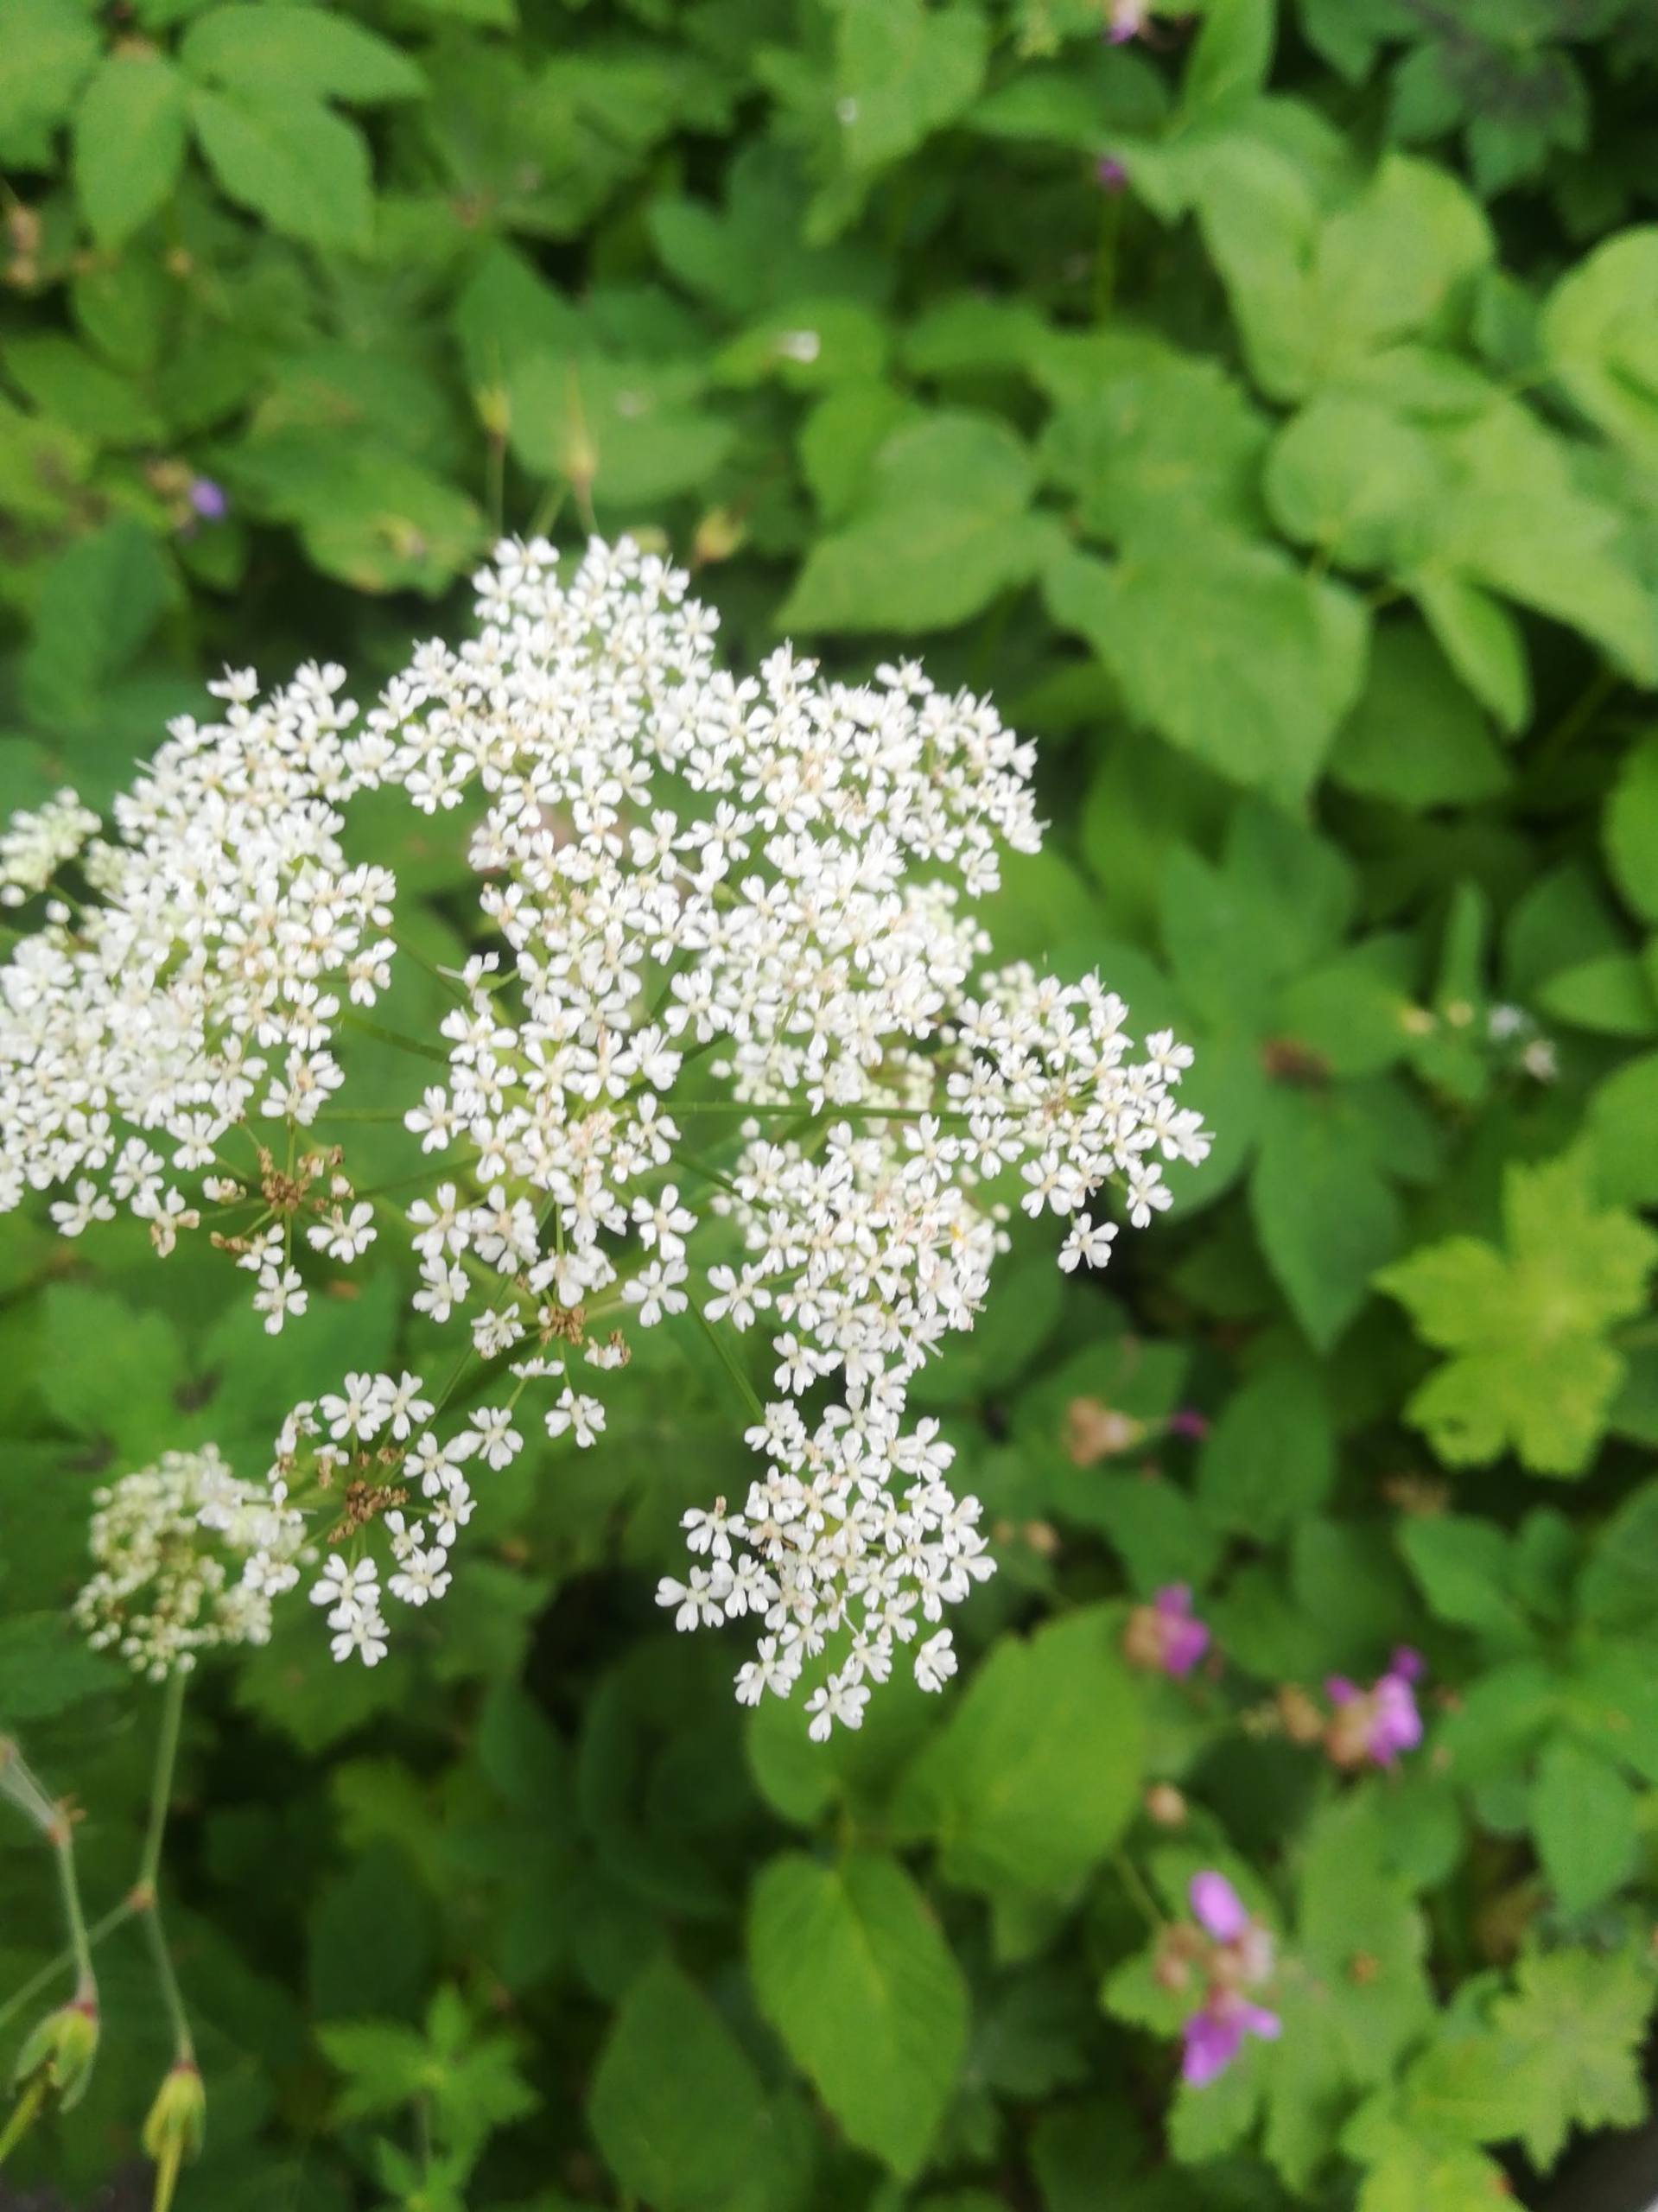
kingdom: Plantae
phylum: Tracheophyta
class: Magnoliopsida
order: Apiales
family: Apiaceae
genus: Aegopodium
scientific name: Aegopodium podagraria
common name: Skvalderkål
